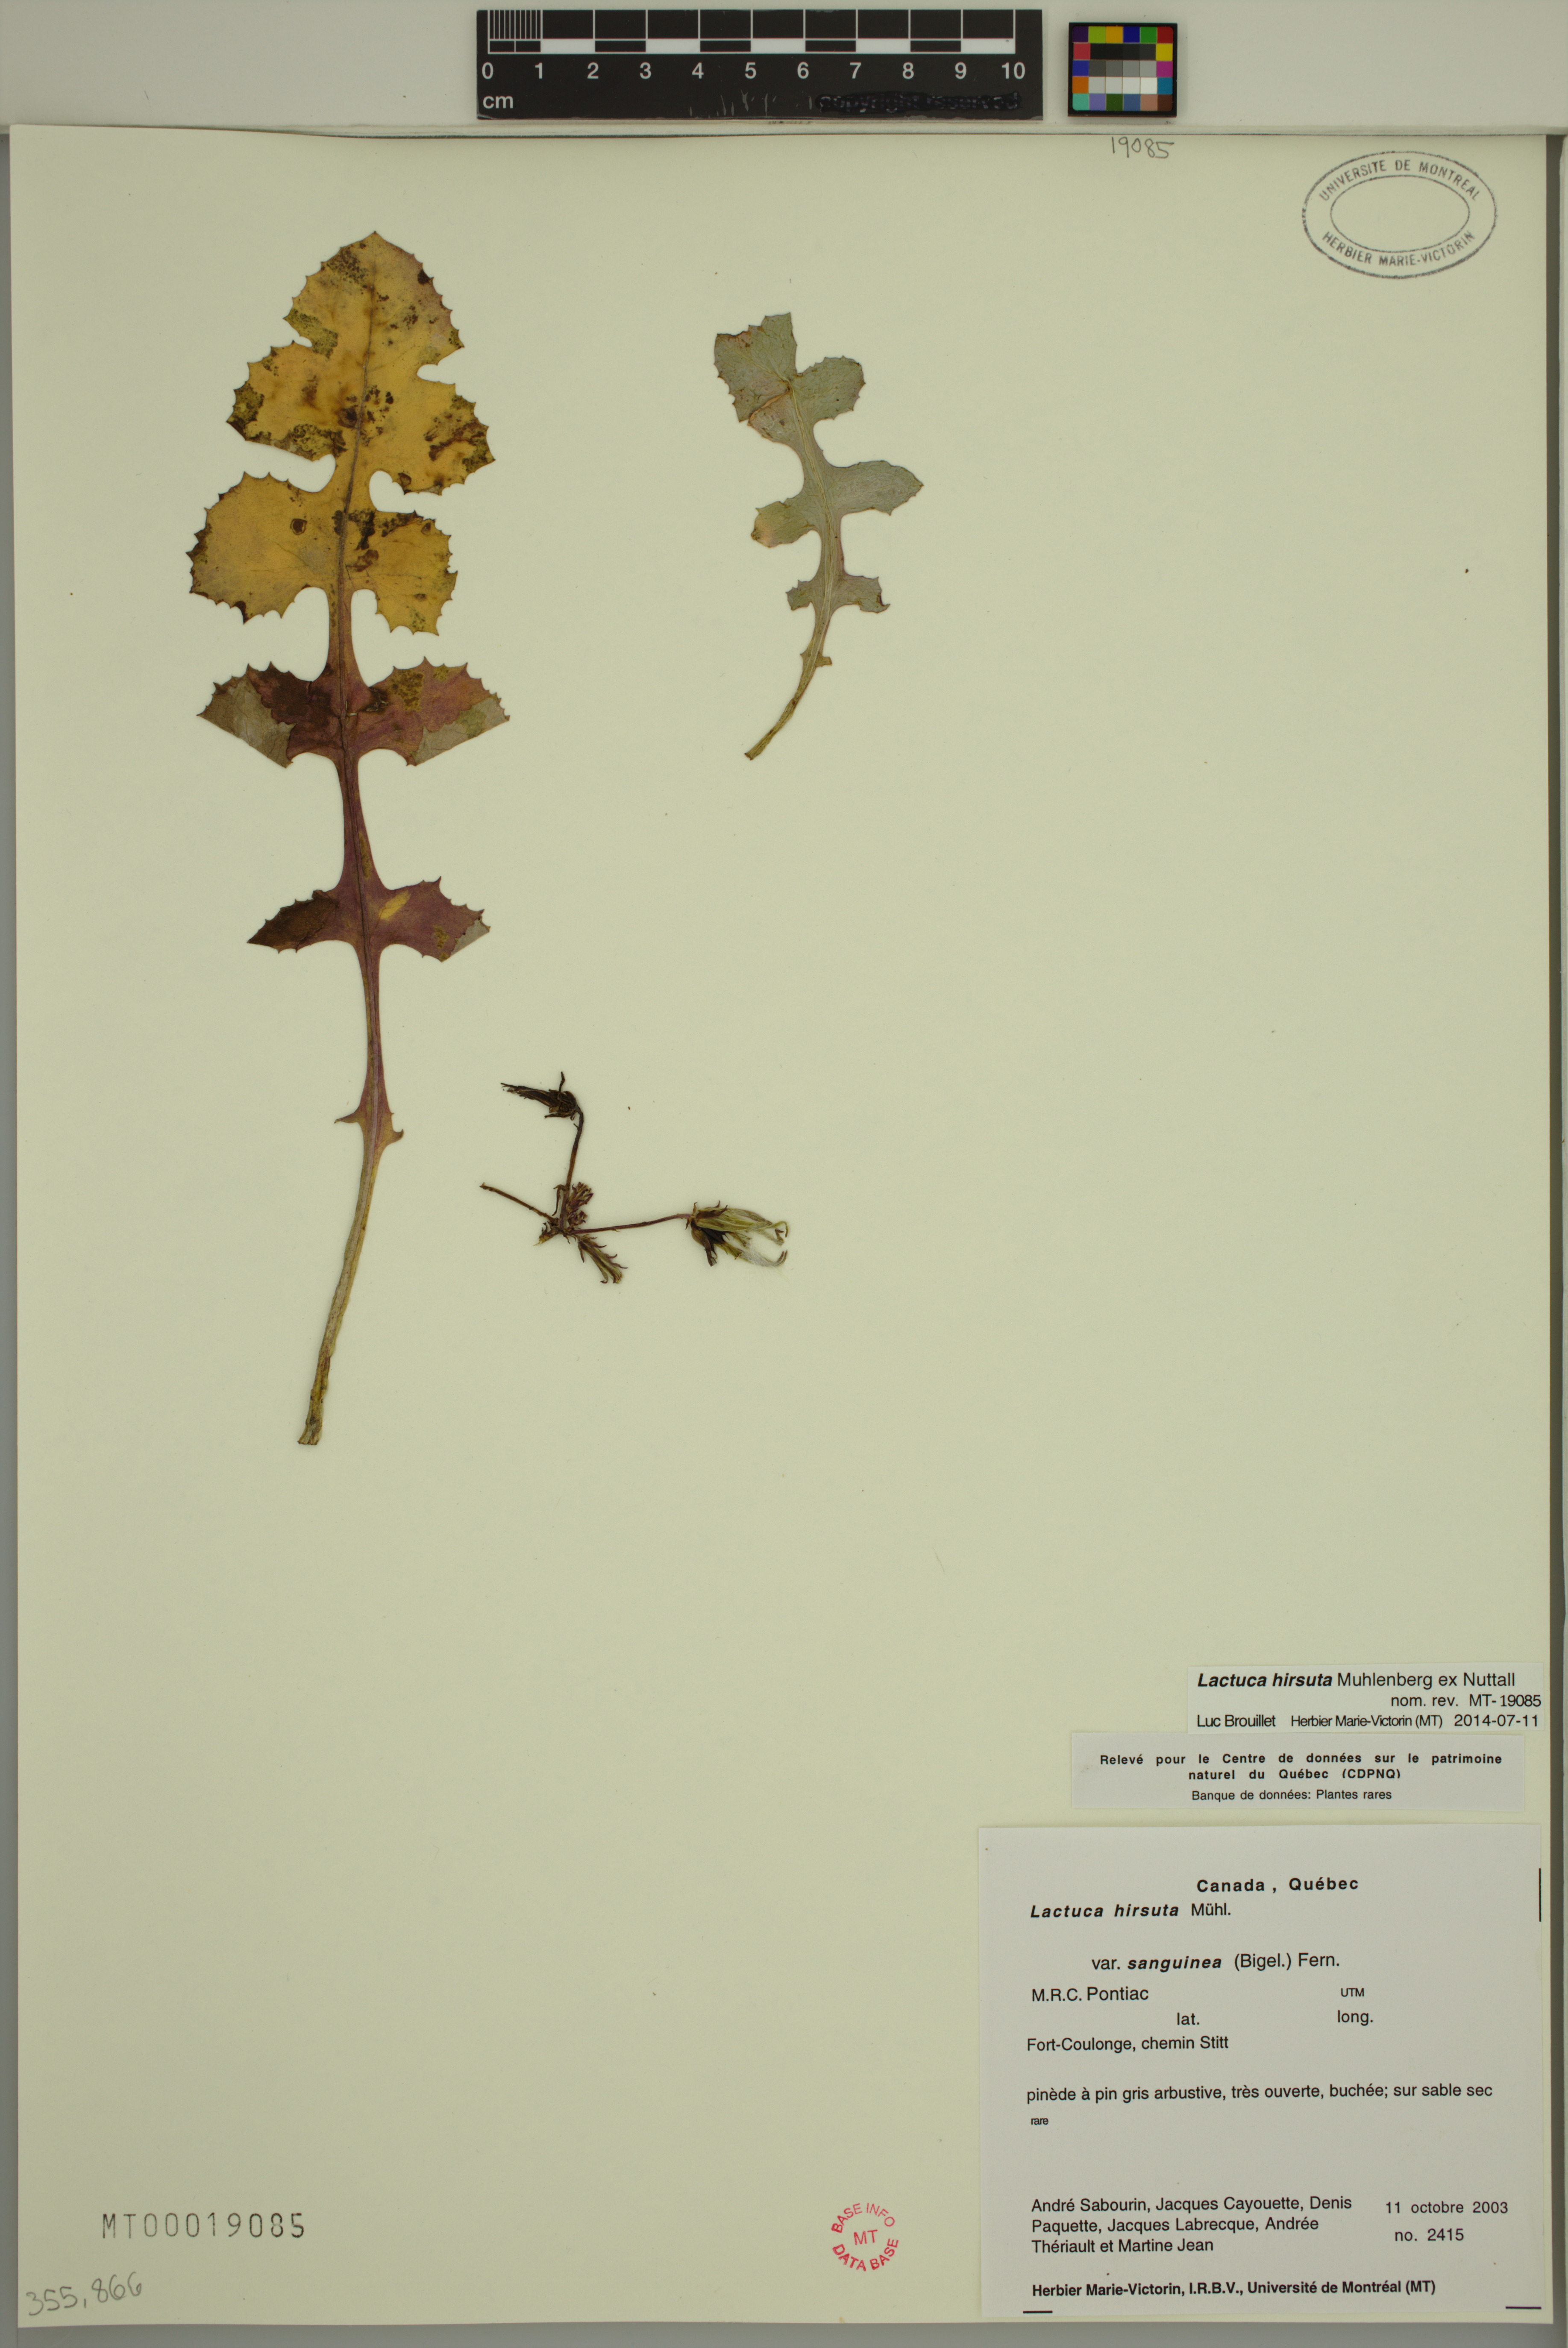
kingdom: Plantae
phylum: Tracheophyta
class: Magnoliopsida
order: Asterales
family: Asteraceae
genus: Lactuca
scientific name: Lactuca hirsuta
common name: Hairy lettuce
